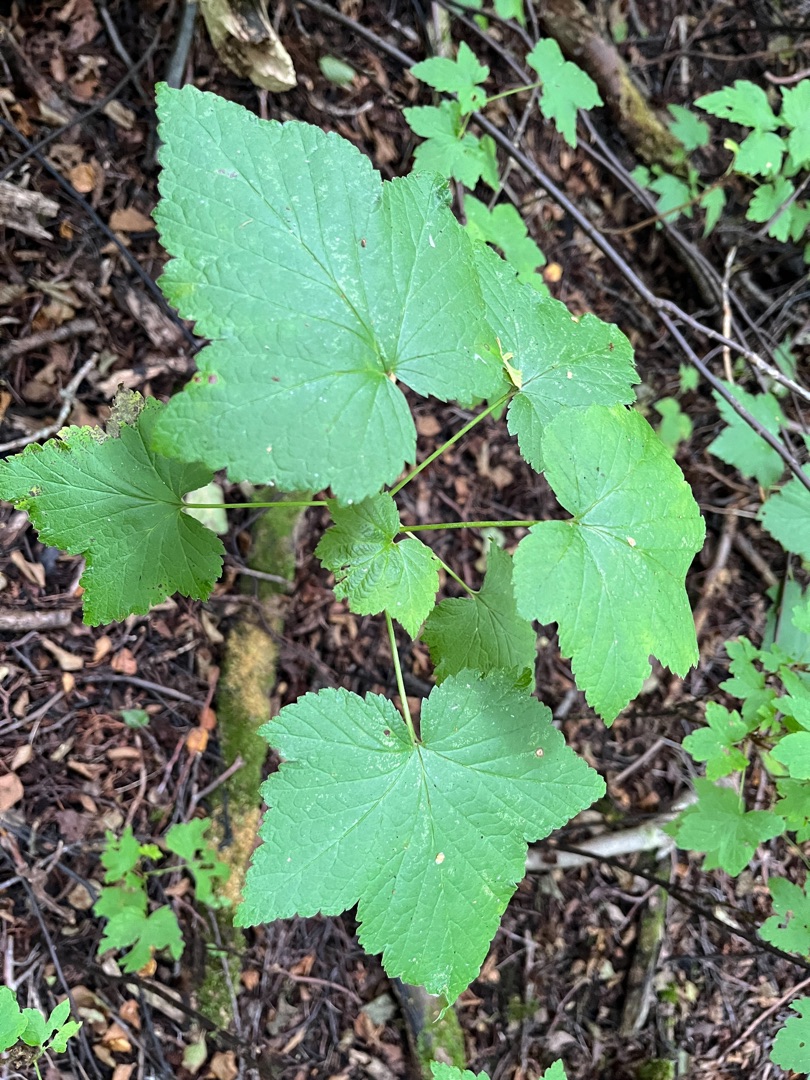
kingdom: Plantae
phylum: Tracheophyta
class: Magnoliopsida
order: Saxifragales
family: Grossulariaceae
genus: Ribes
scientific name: Ribes nigrum
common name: Solbær
